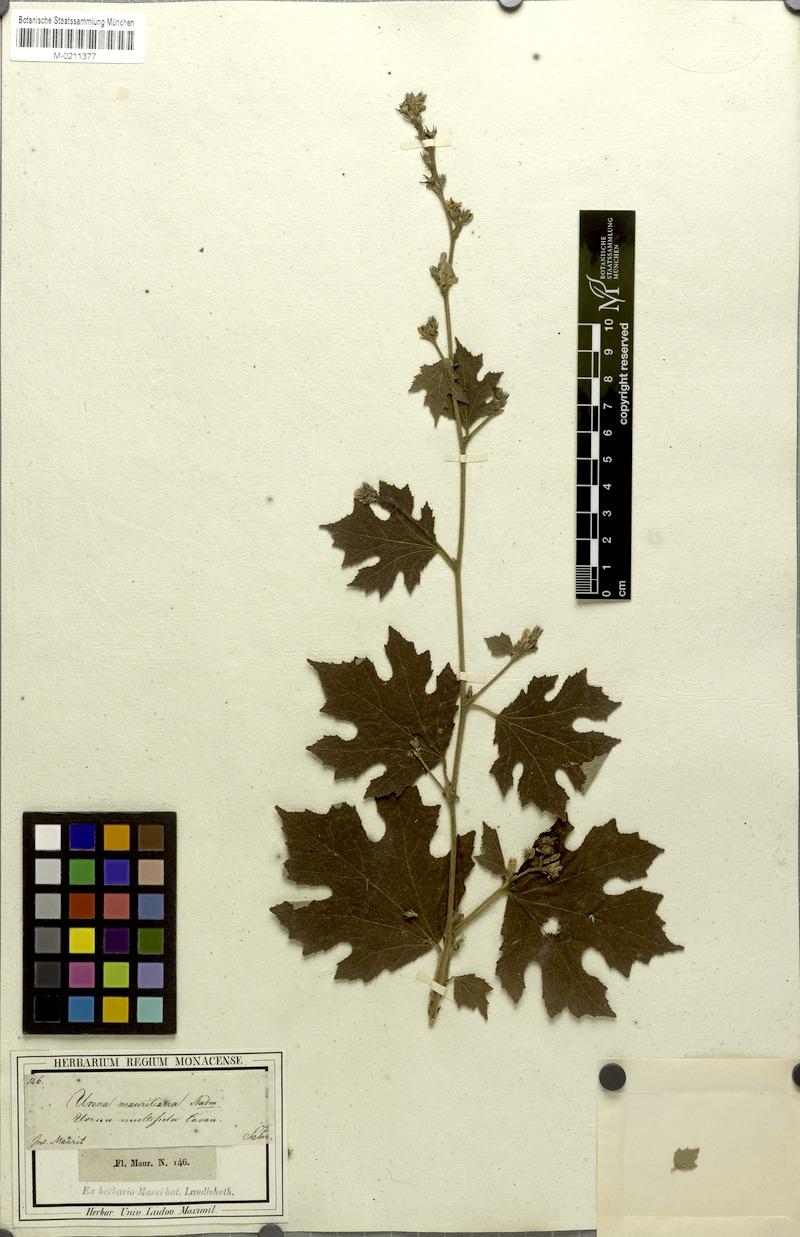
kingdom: Plantae
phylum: Tracheophyta
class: Magnoliopsida
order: Malvales
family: Malvaceae
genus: Urena
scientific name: Urena lobata
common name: Caesarweed
